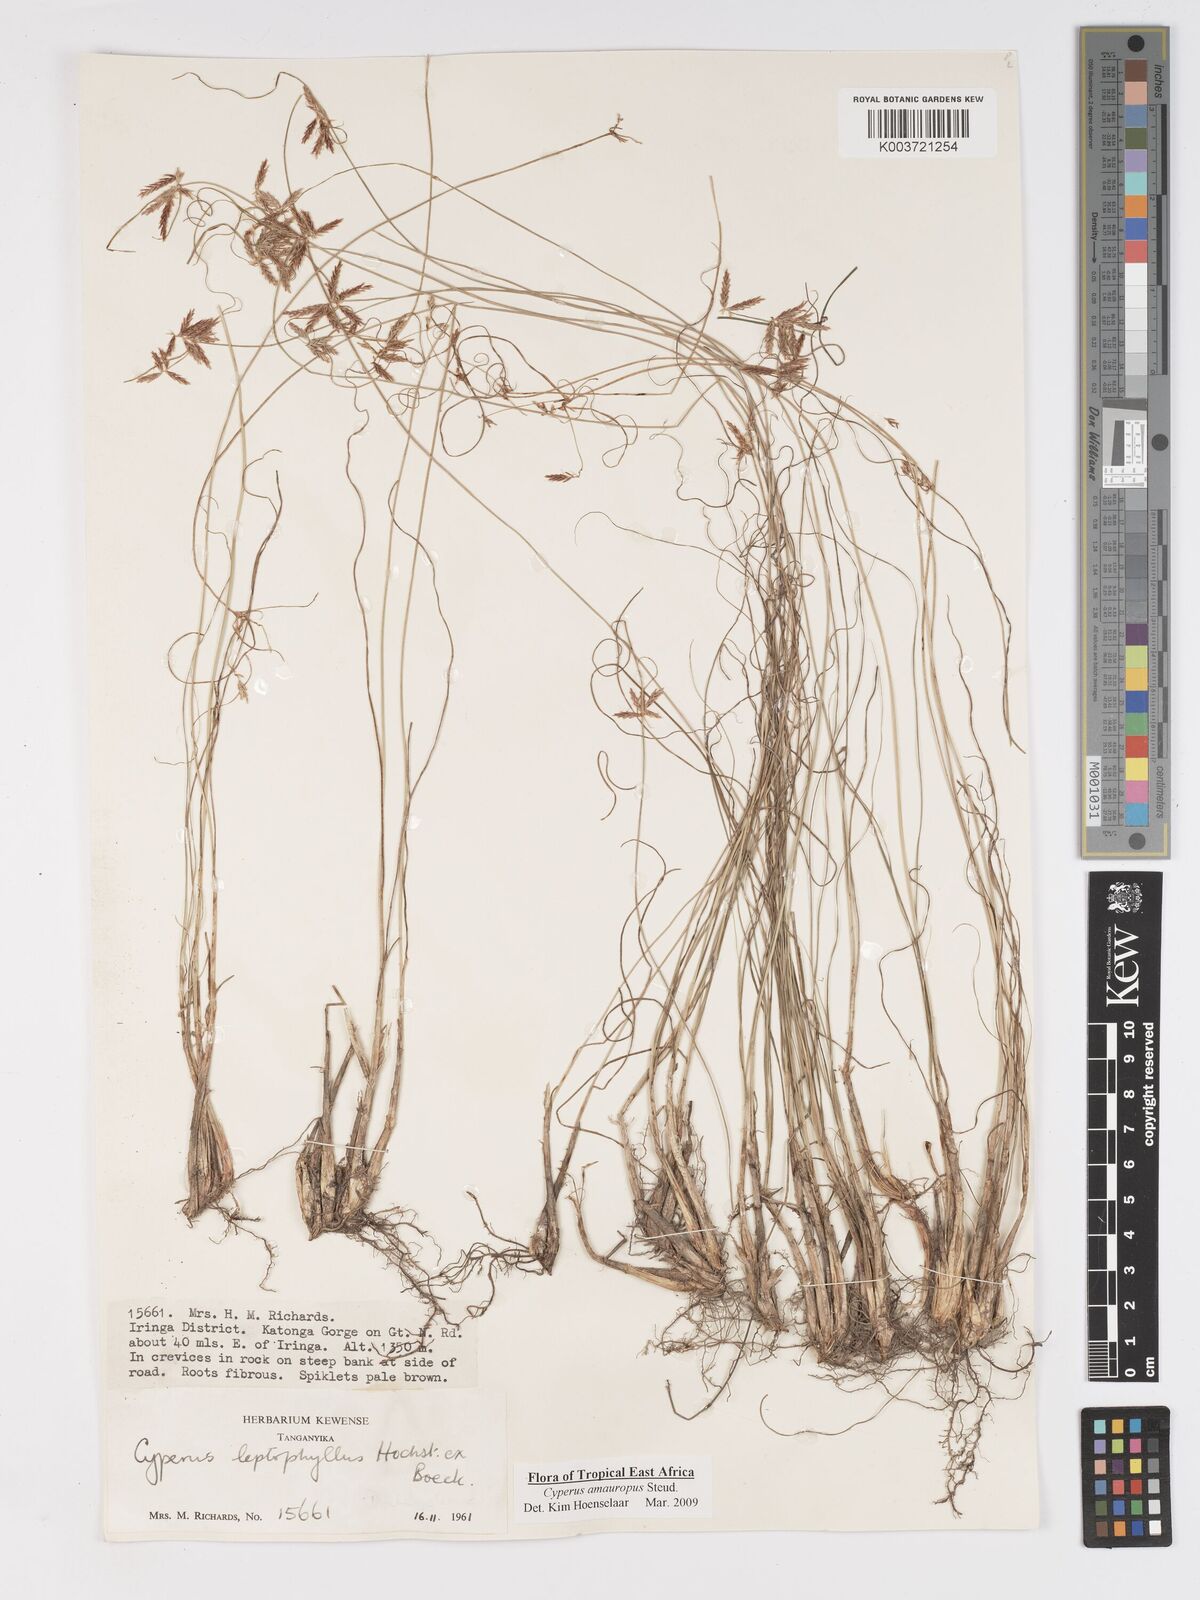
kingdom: Plantae
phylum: Tracheophyta
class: Liliopsida
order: Poales
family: Cyperaceae
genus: Cyperus
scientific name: Cyperus amauropus
